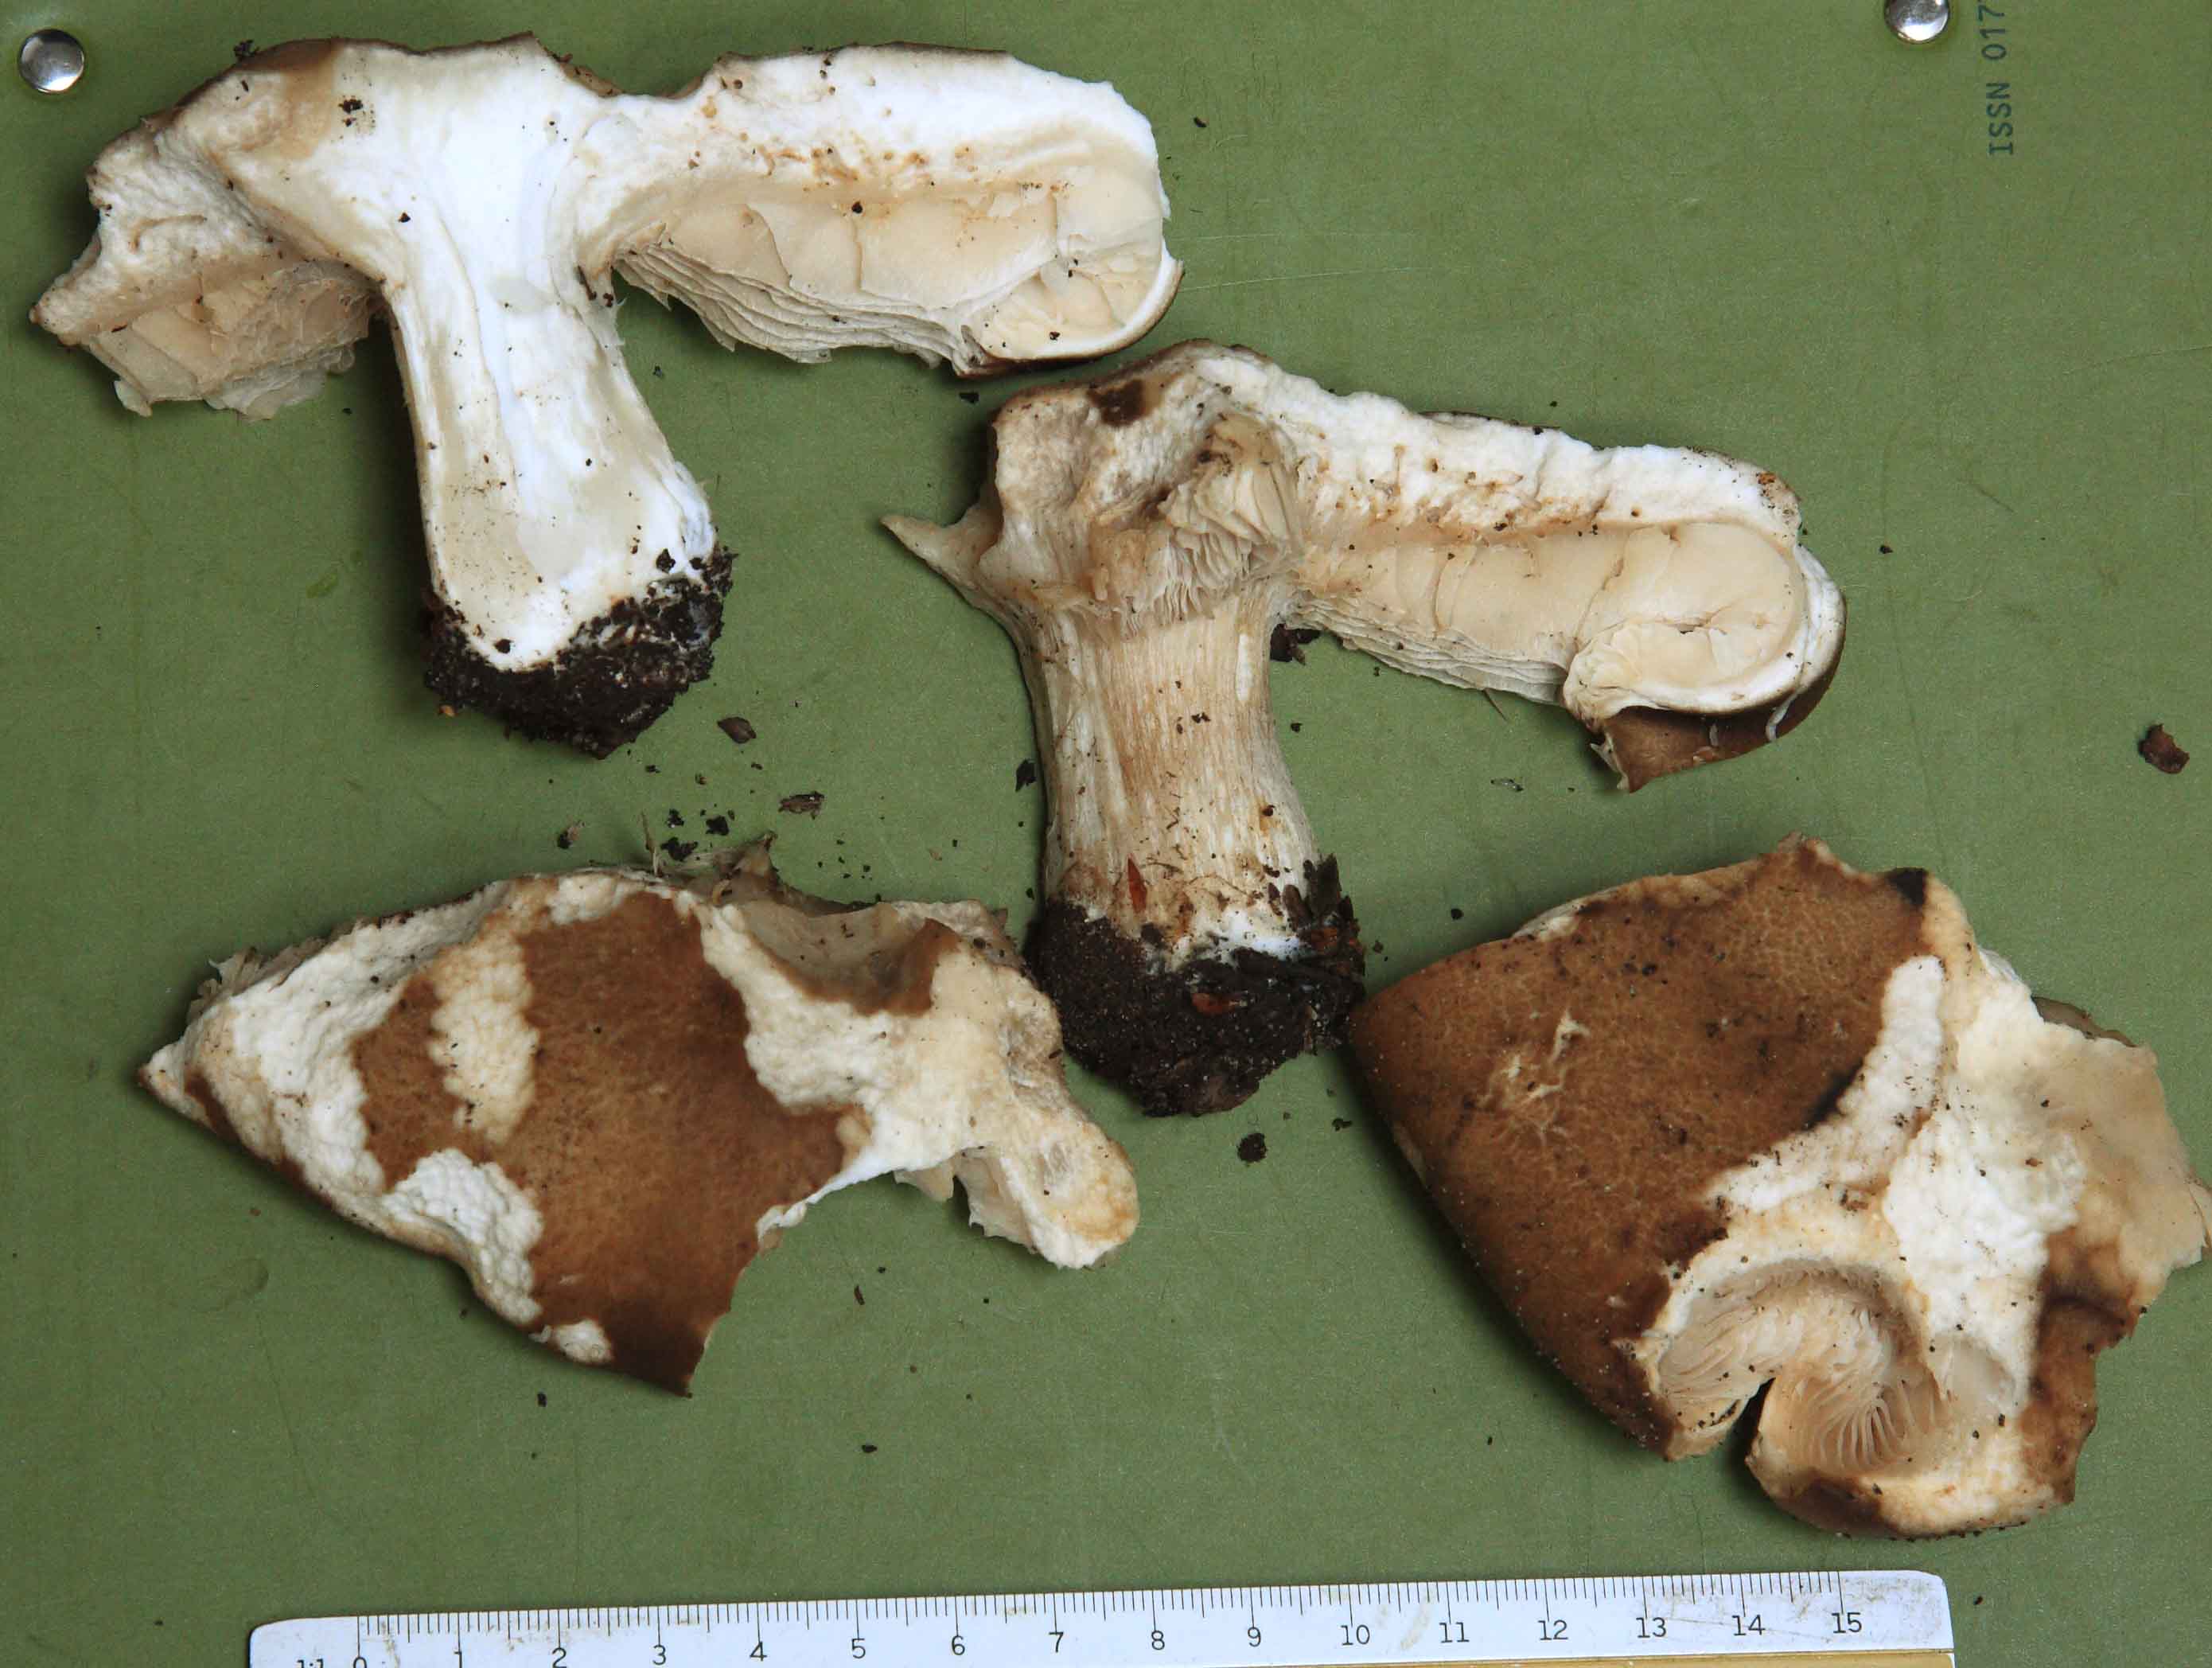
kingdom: Fungi
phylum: Basidiomycota
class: Agaricomycetes
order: Agaricales
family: Tricholomataceae
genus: Melanoleuca
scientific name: Melanoleuca grammopodia
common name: stribestokket munkehat
